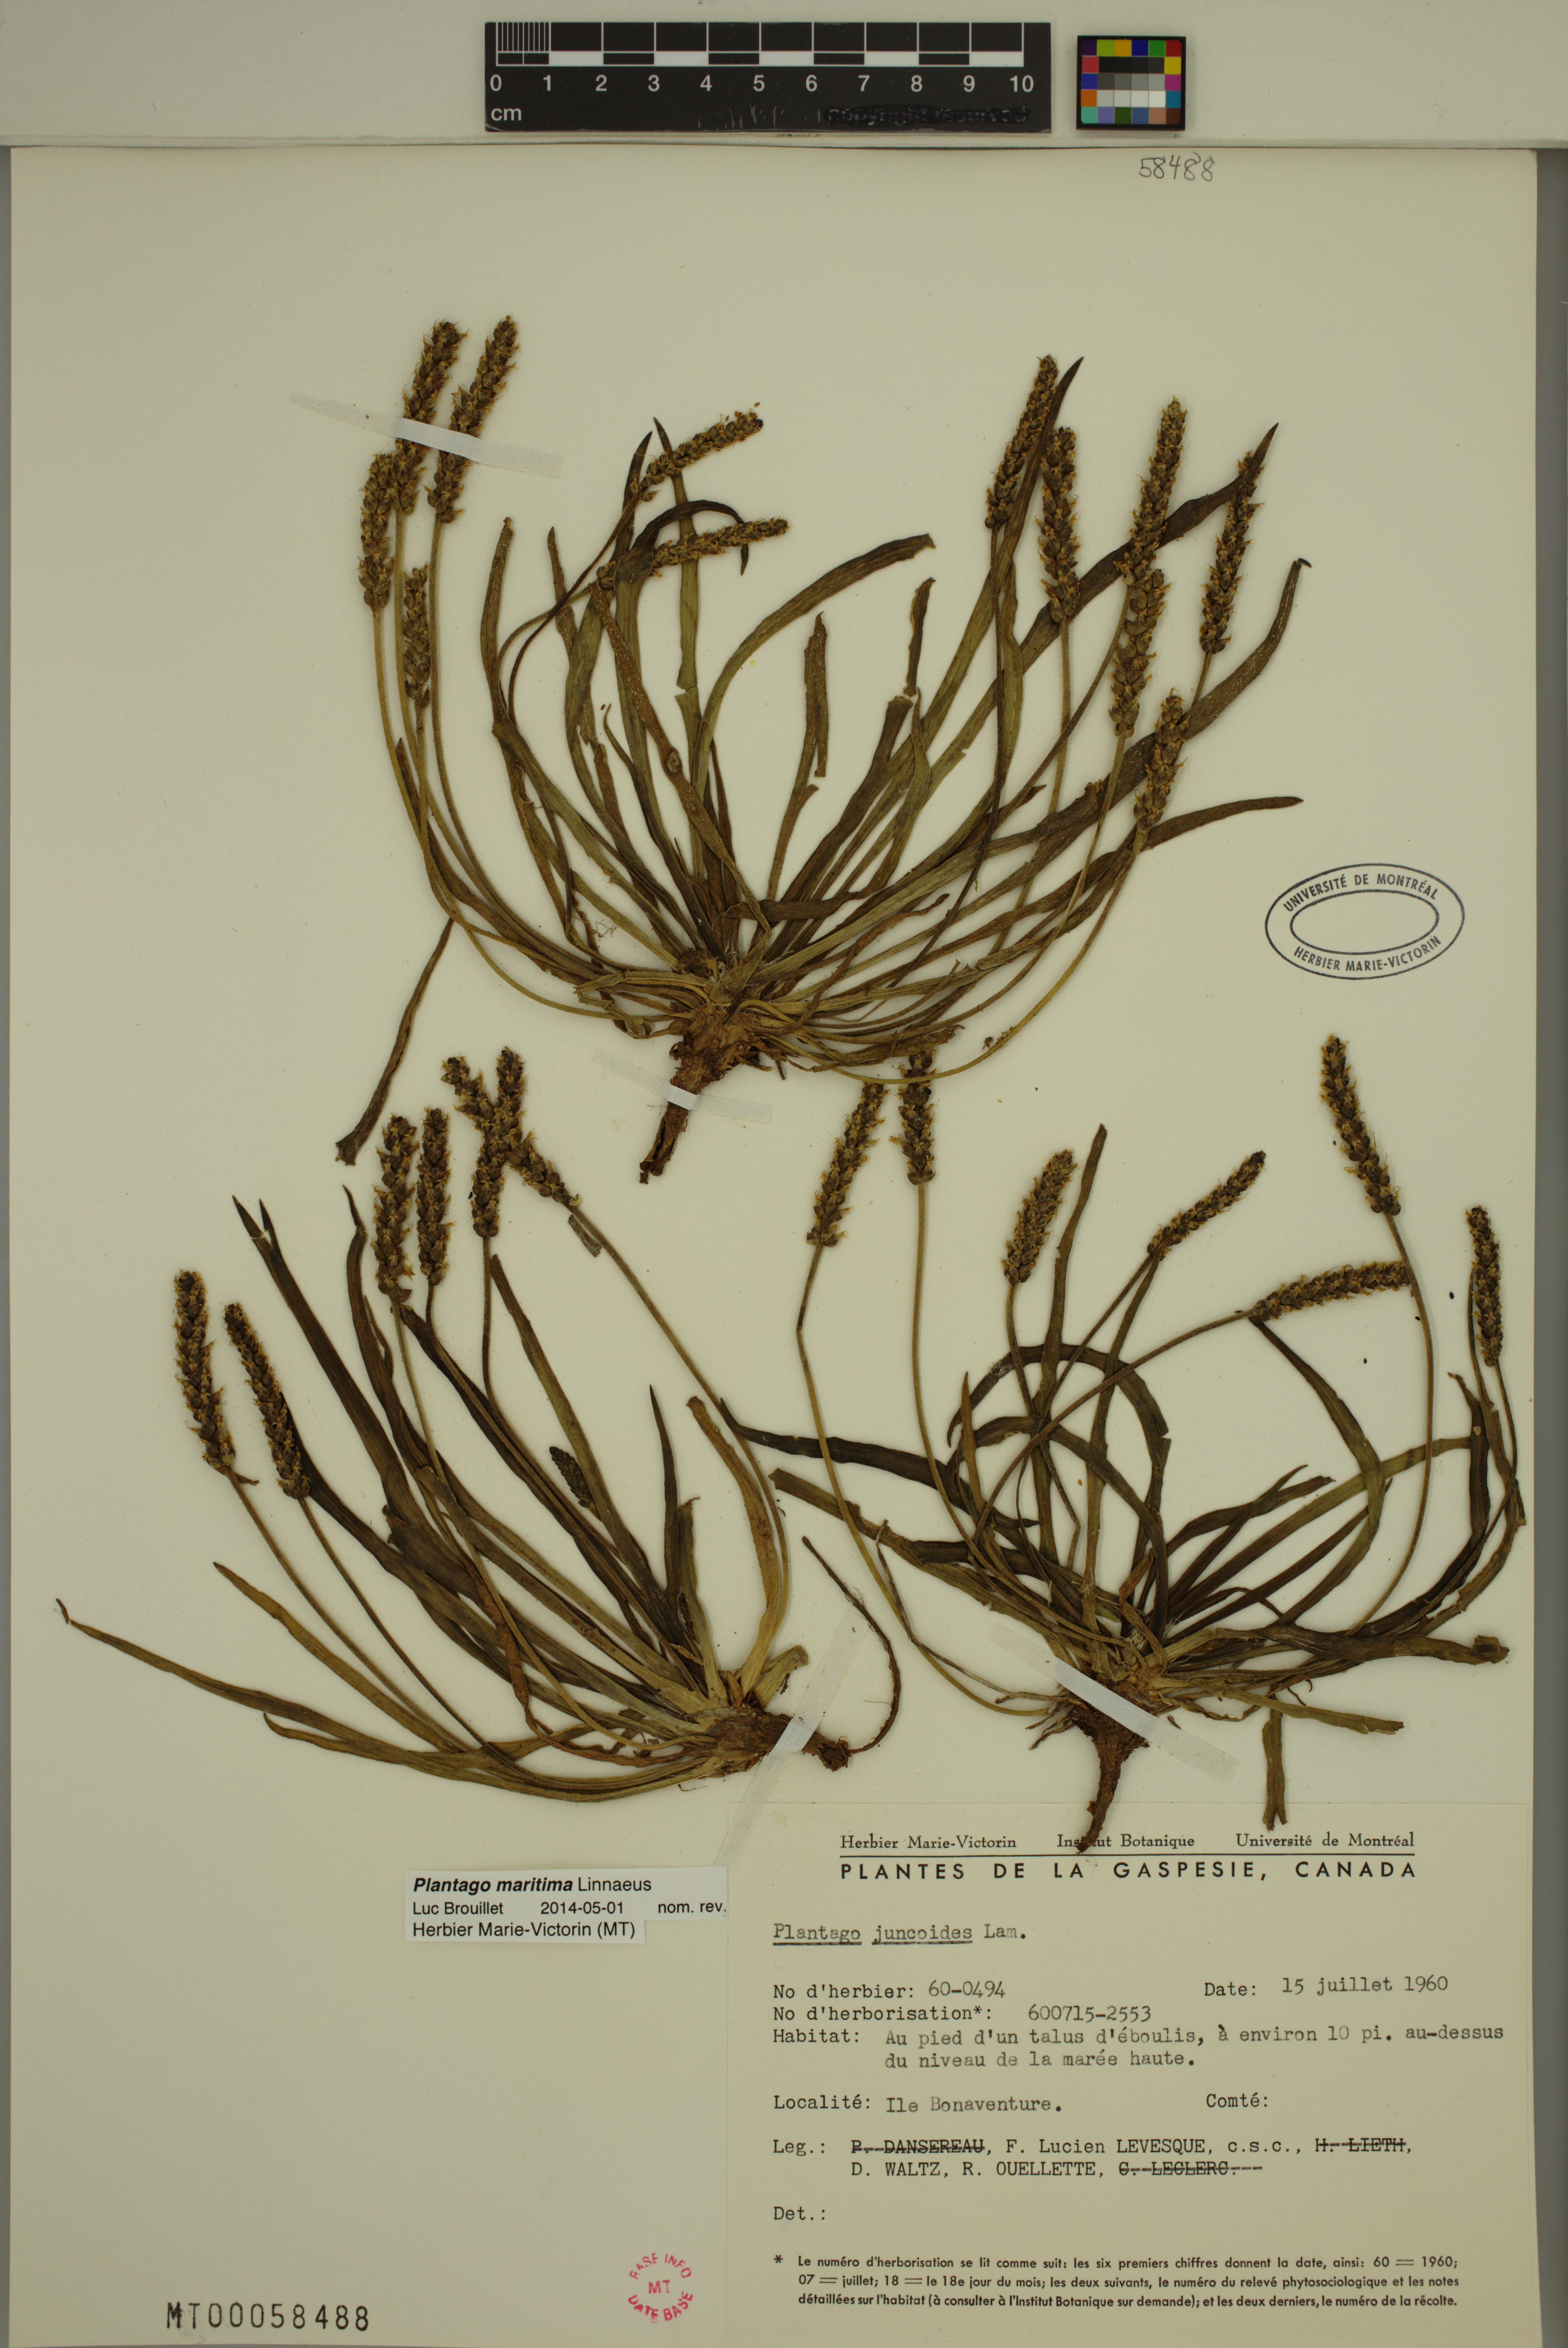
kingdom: Plantae
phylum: Tracheophyta
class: Magnoliopsida
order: Lamiales
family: Plantaginaceae
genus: Plantago
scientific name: Plantago maritima
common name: Sea plantain
